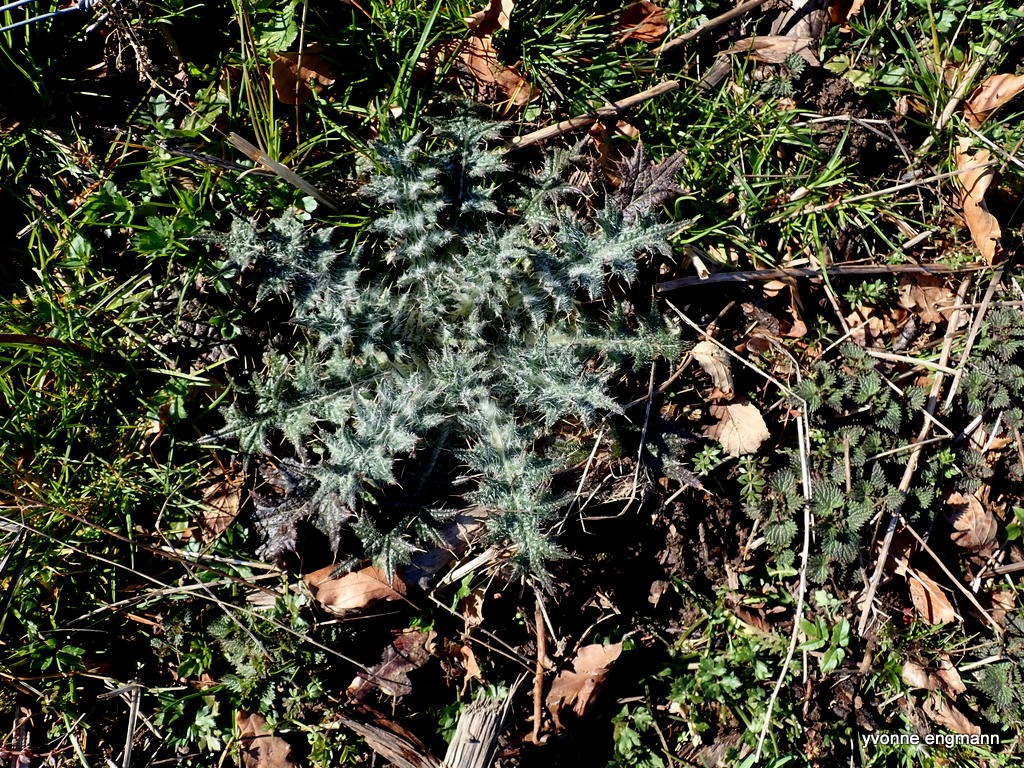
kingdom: Plantae
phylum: Tracheophyta
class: Magnoliopsida
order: Asterales
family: Asteraceae
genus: Cirsium
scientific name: Cirsium vulgare
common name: Horse-tidsel
